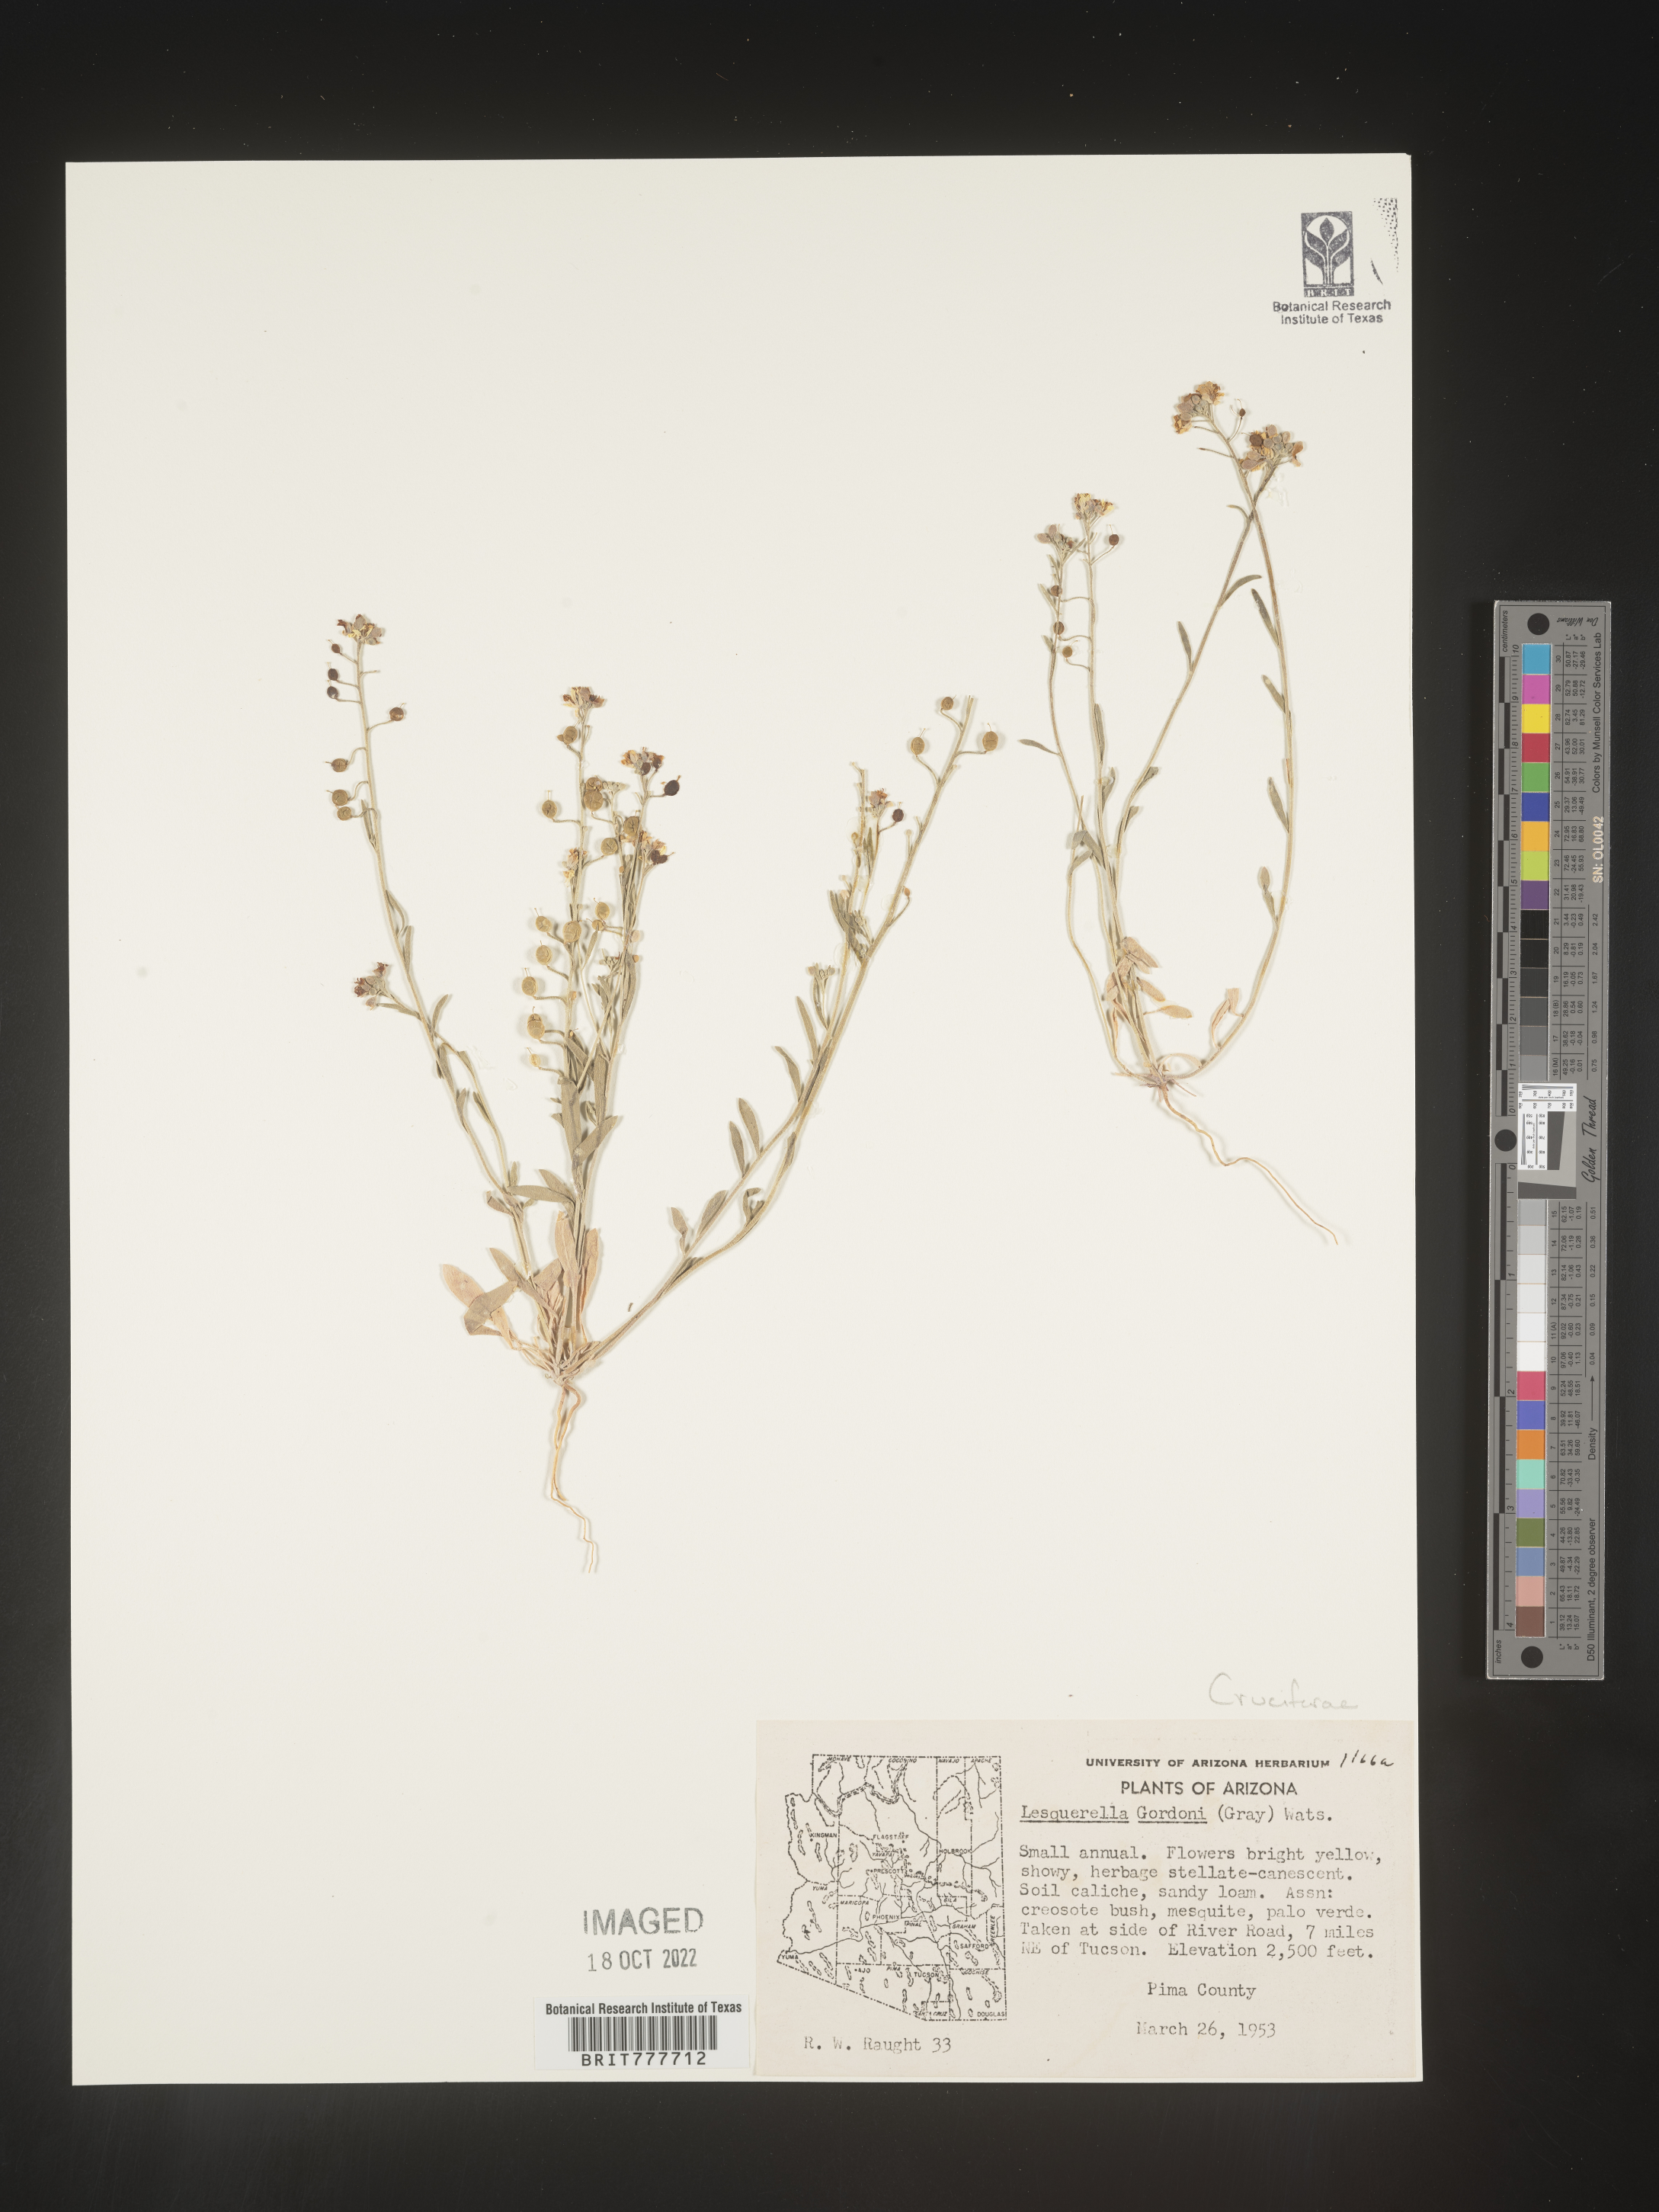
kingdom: Chromista
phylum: Cercozoa
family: Psammonobiotidae
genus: Lesquerella
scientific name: Lesquerella
